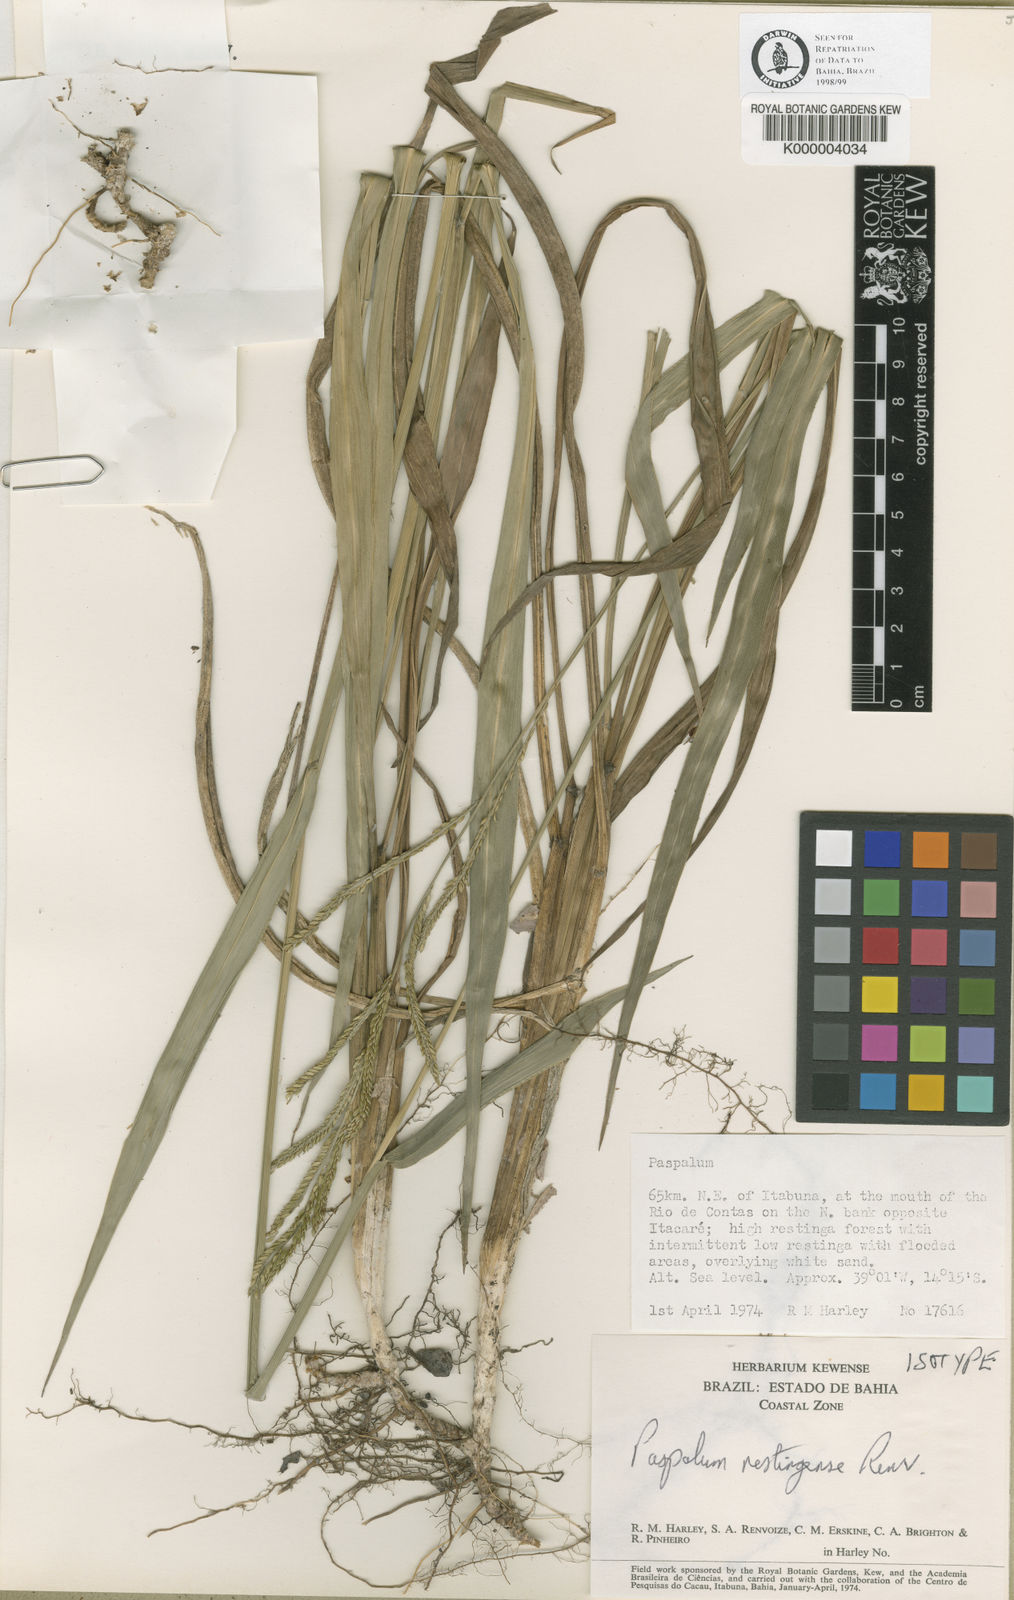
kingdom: Plantae
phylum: Tracheophyta
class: Liliopsida
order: Poales
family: Poaceae
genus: Paspalum
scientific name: Paspalum restingense
